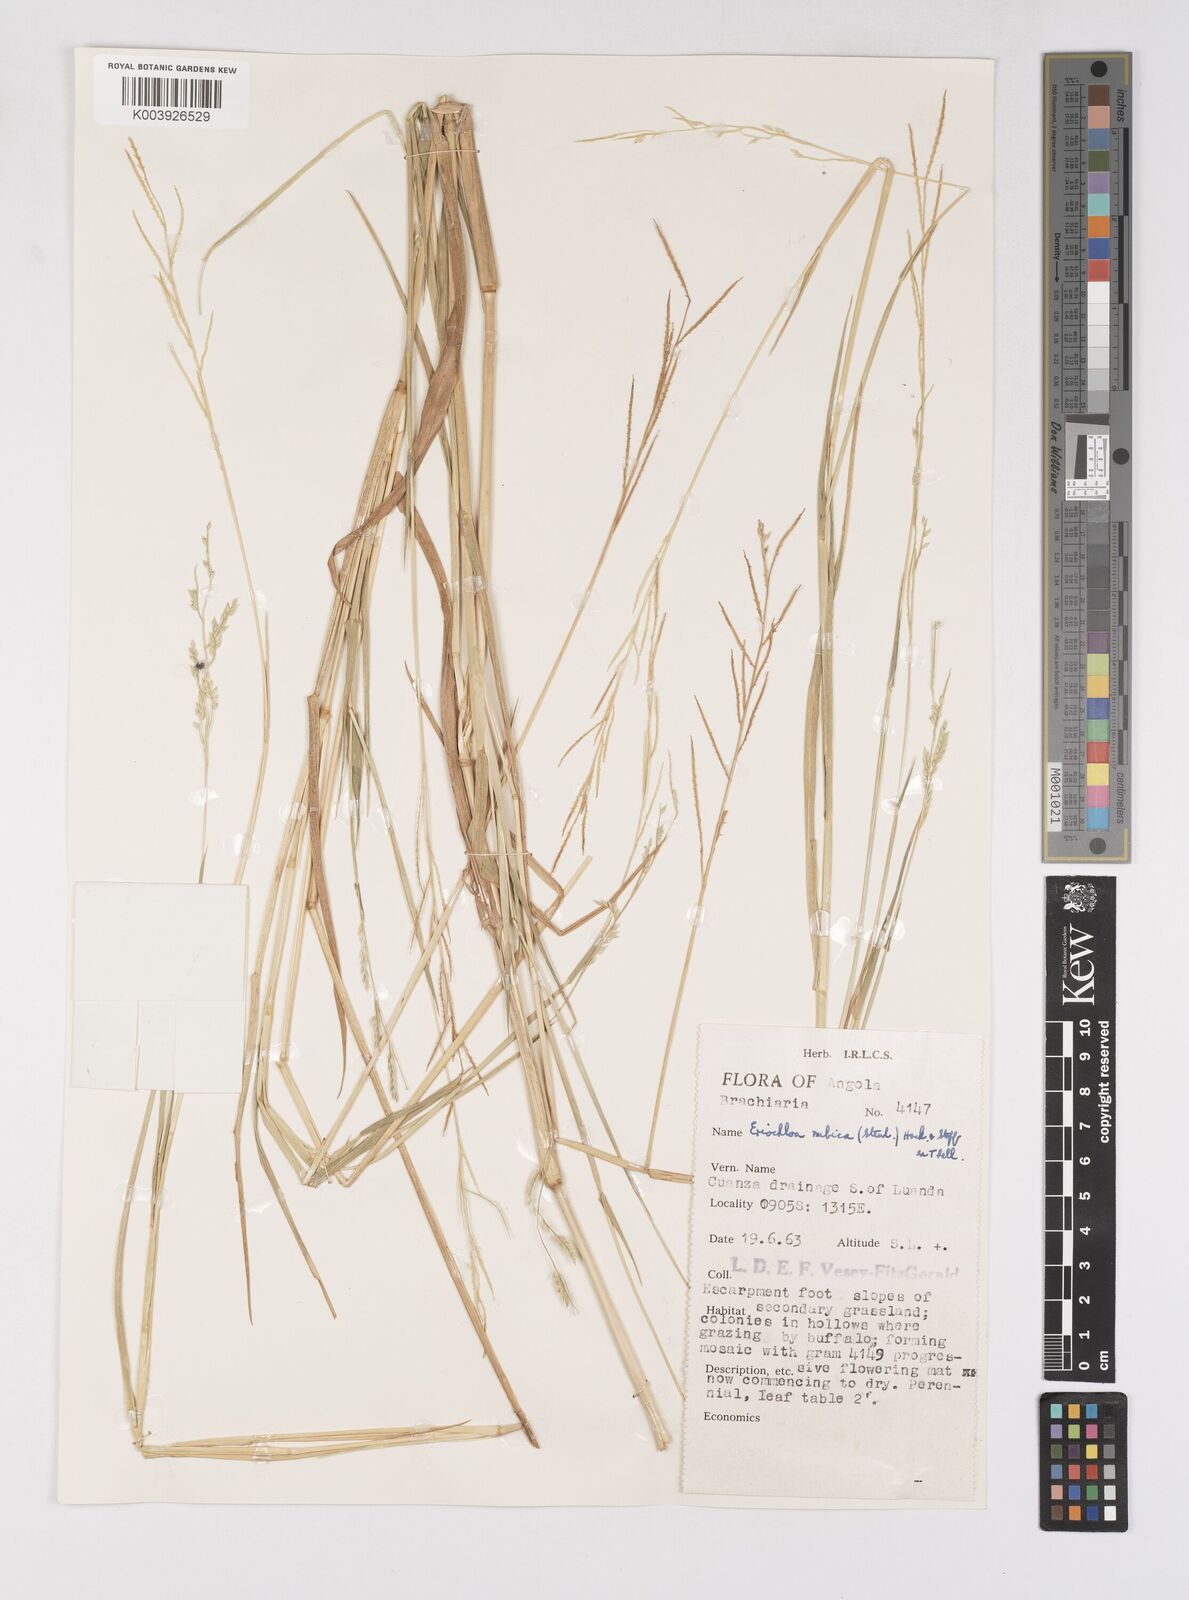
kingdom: Plantae
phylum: Tracheophyta
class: Liliopsida
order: Poales
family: Poaceae
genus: Eriochloa
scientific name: Eriochloa barbatus
